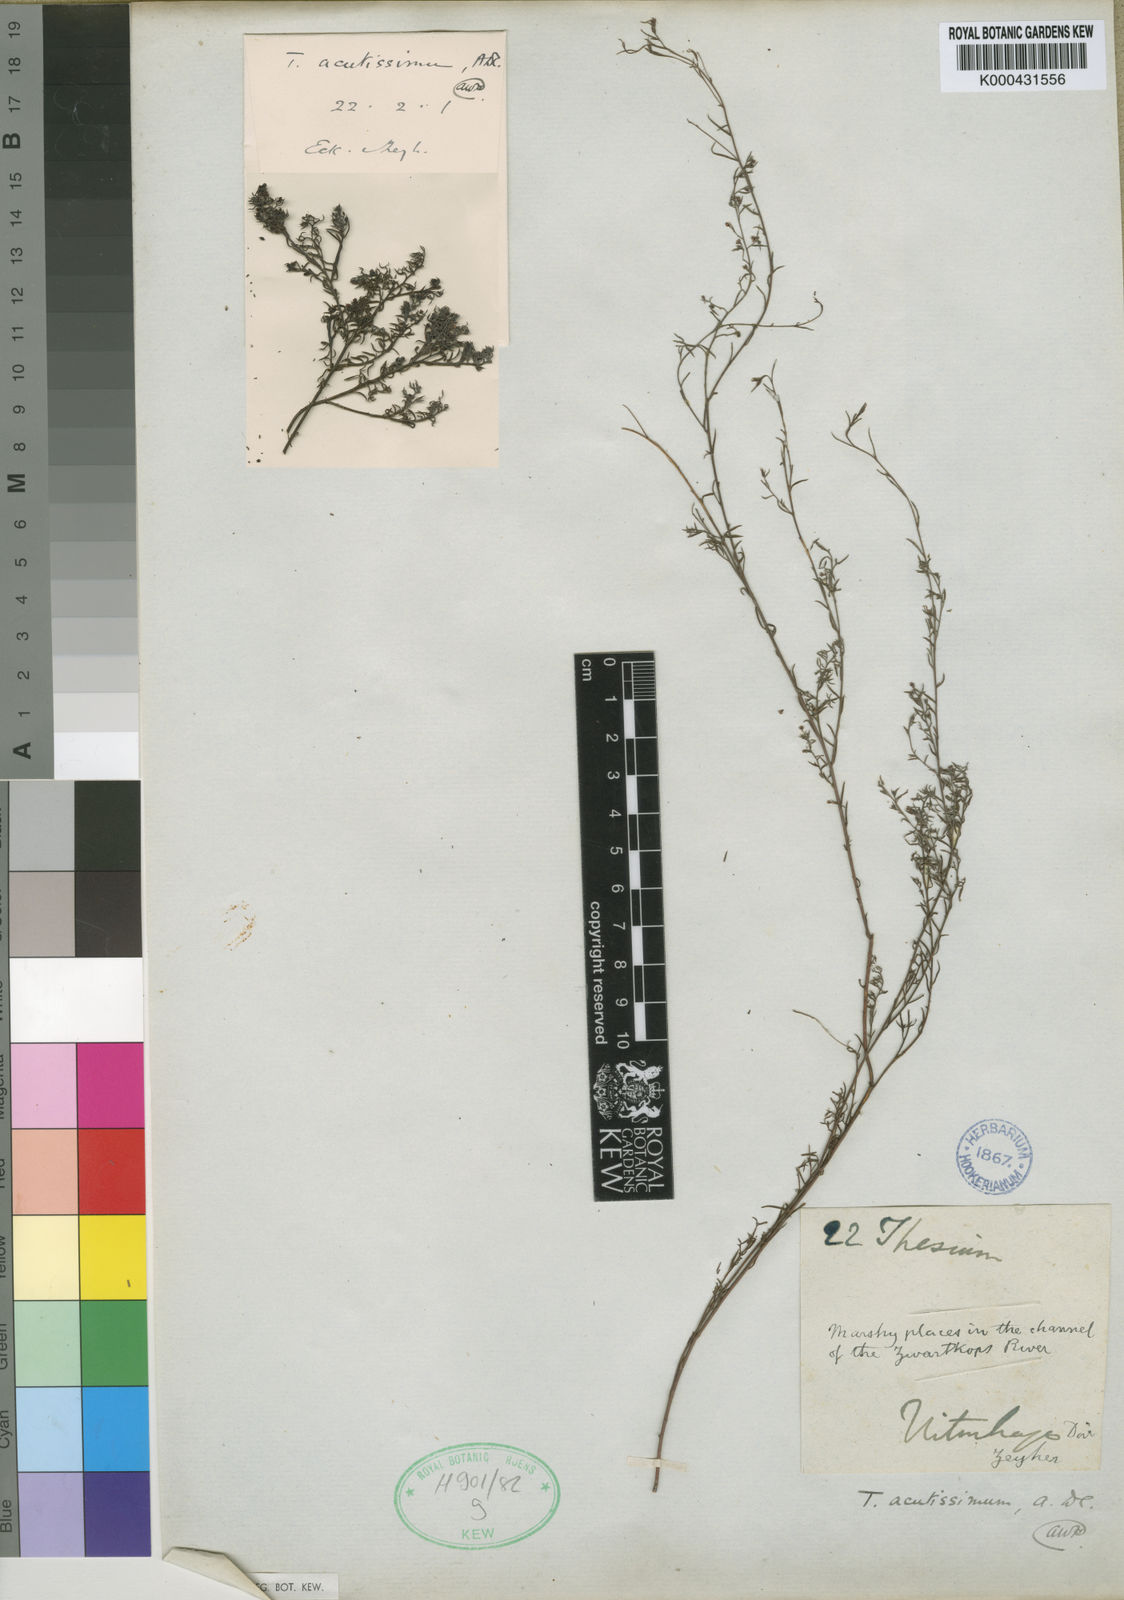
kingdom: Plantae
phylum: Tracheophyta
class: Magnoliopsida
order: Santalales
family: Thesiaceae
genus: Thesium
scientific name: Thesium acutissimum
